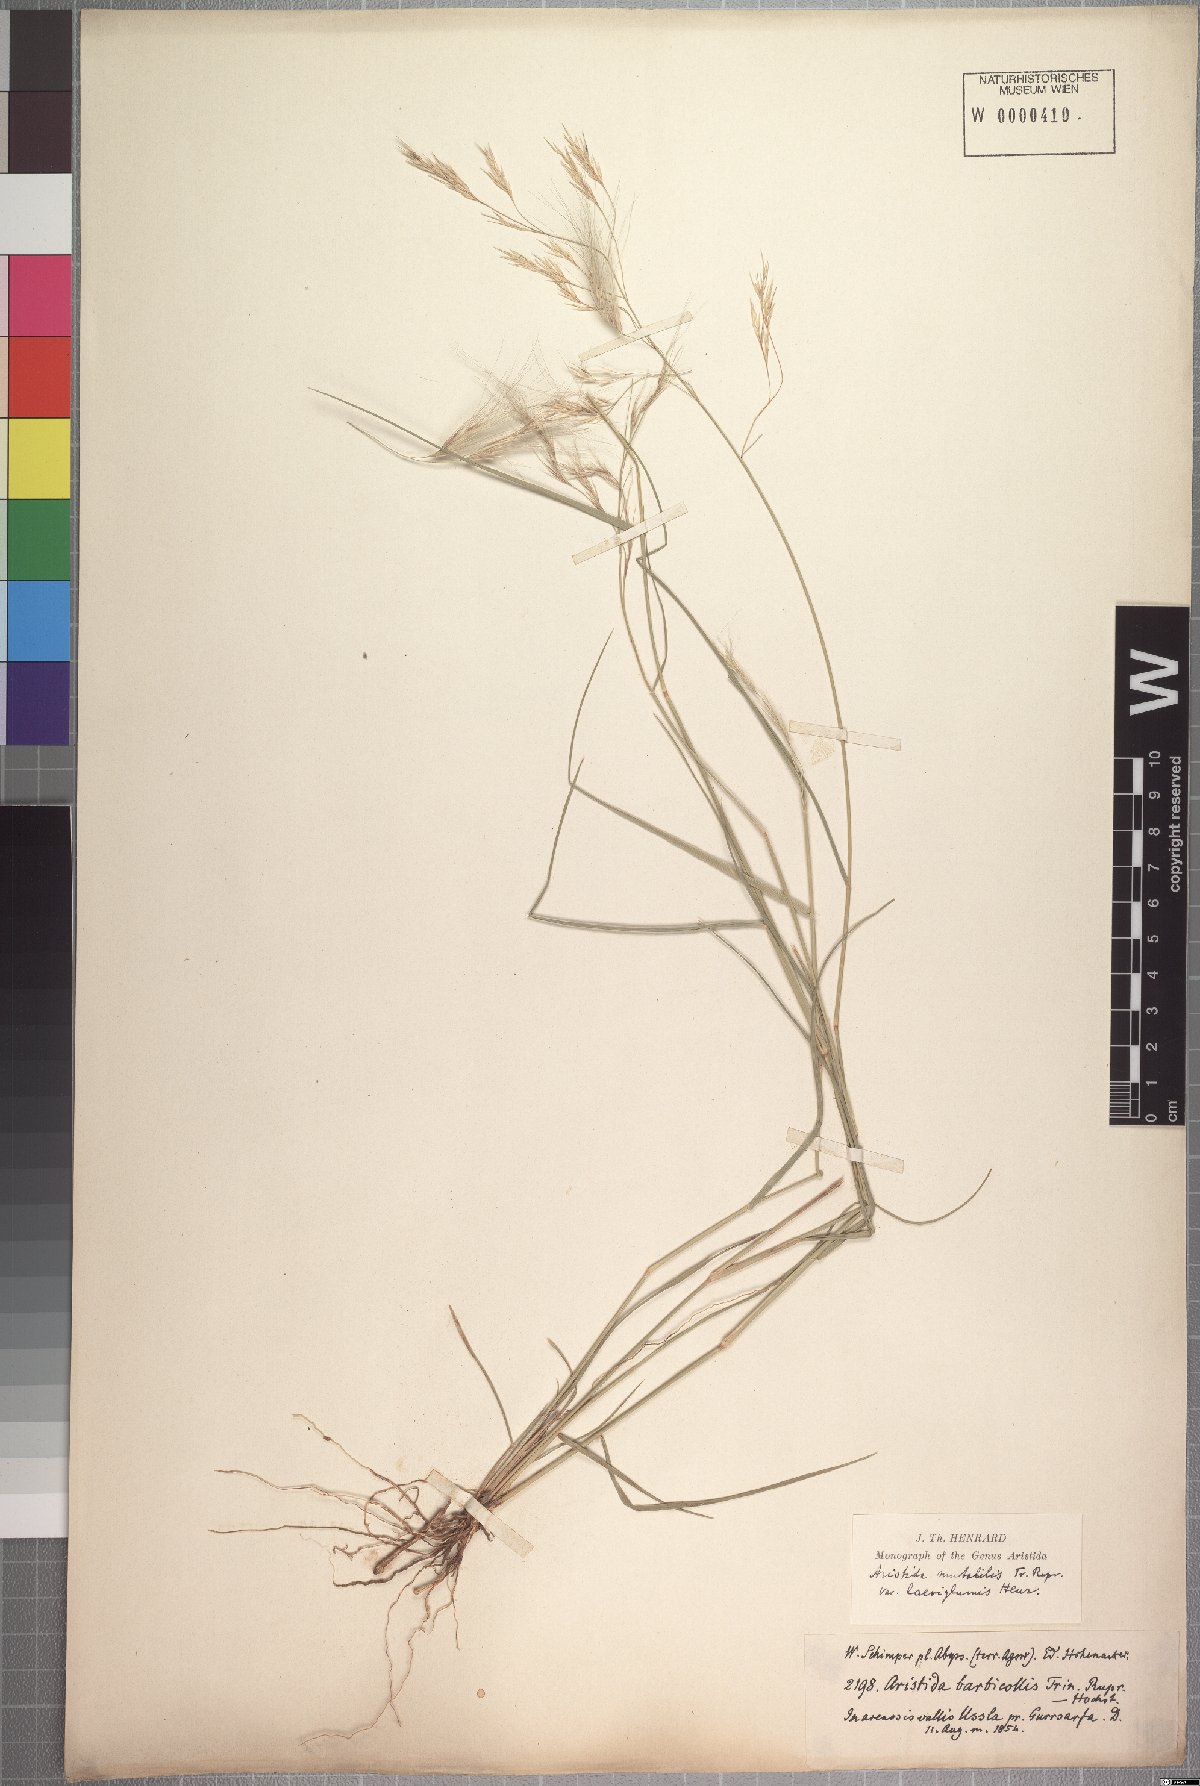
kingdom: Plantae
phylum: Tracheophyta
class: Liliopsida
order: Poales
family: Poaceae
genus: Aristida
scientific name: Aristida mutabilis
